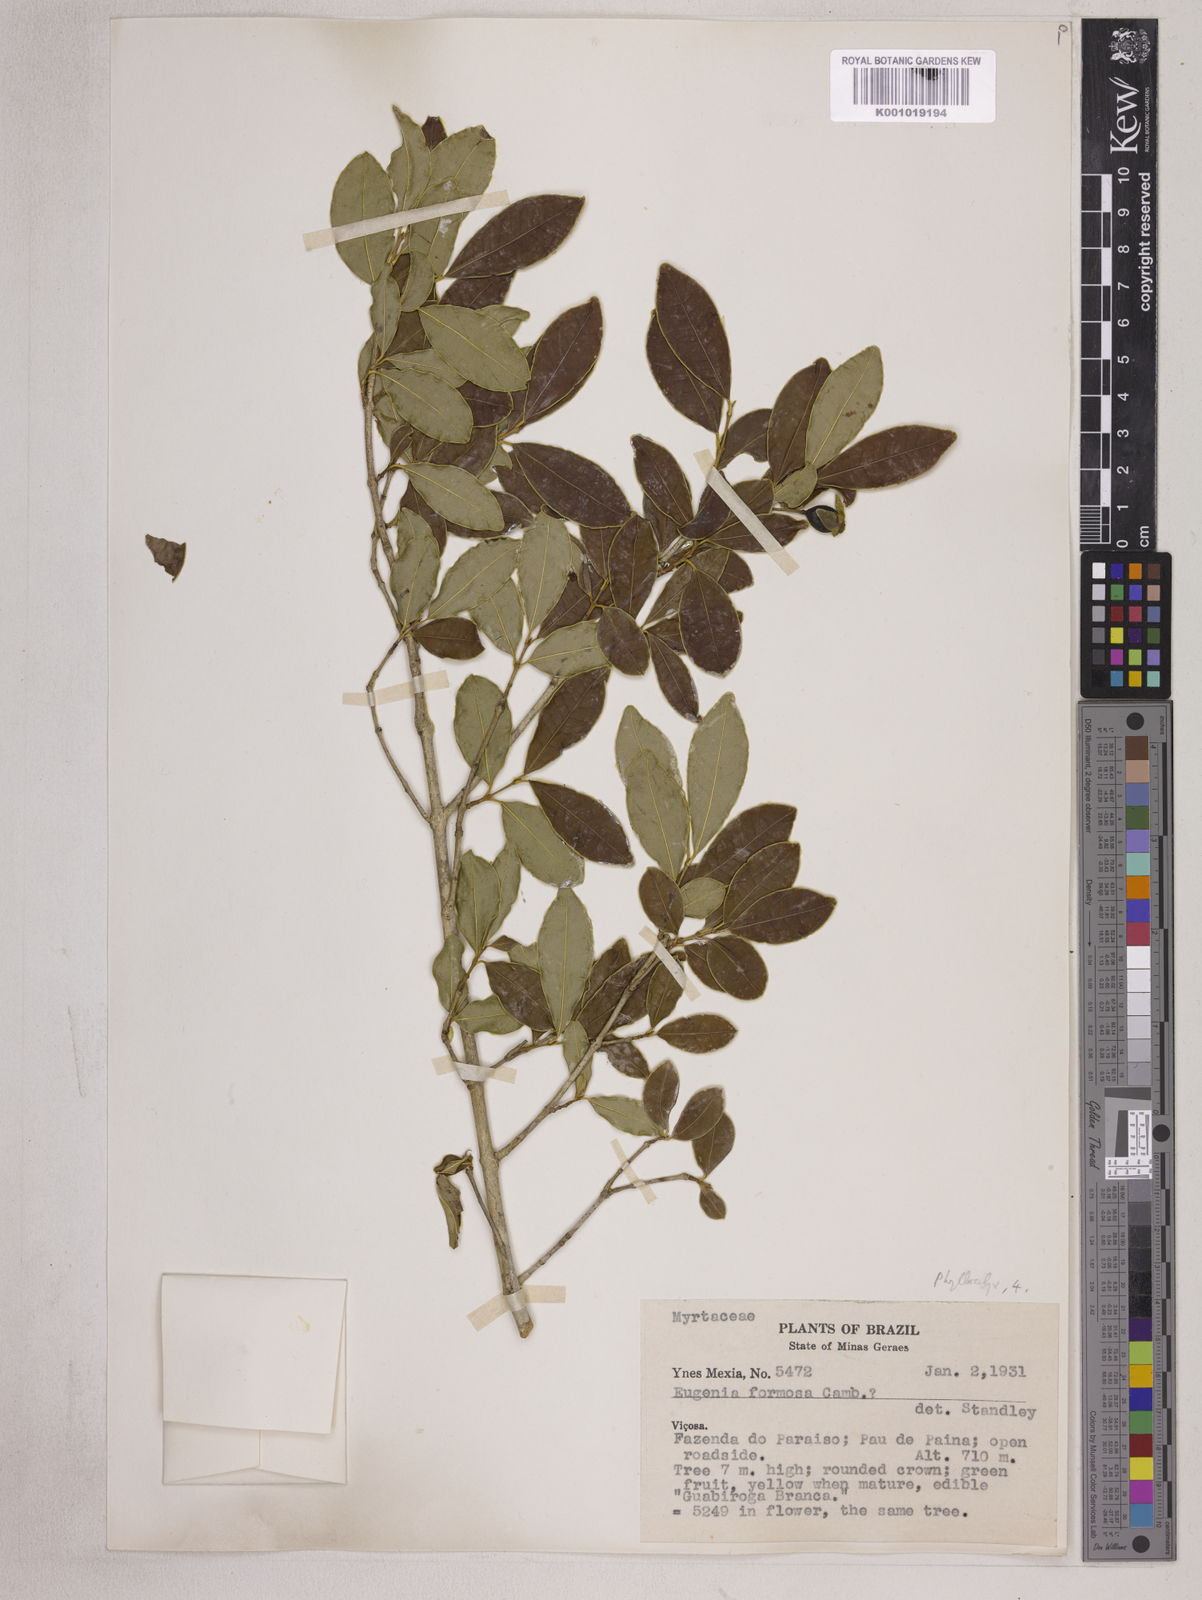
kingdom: Plantae
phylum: Tracheophyta
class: Magnoliopsida
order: Myrtales
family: Myrtaceae
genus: Eugenia
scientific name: Eugenia neoformosa
